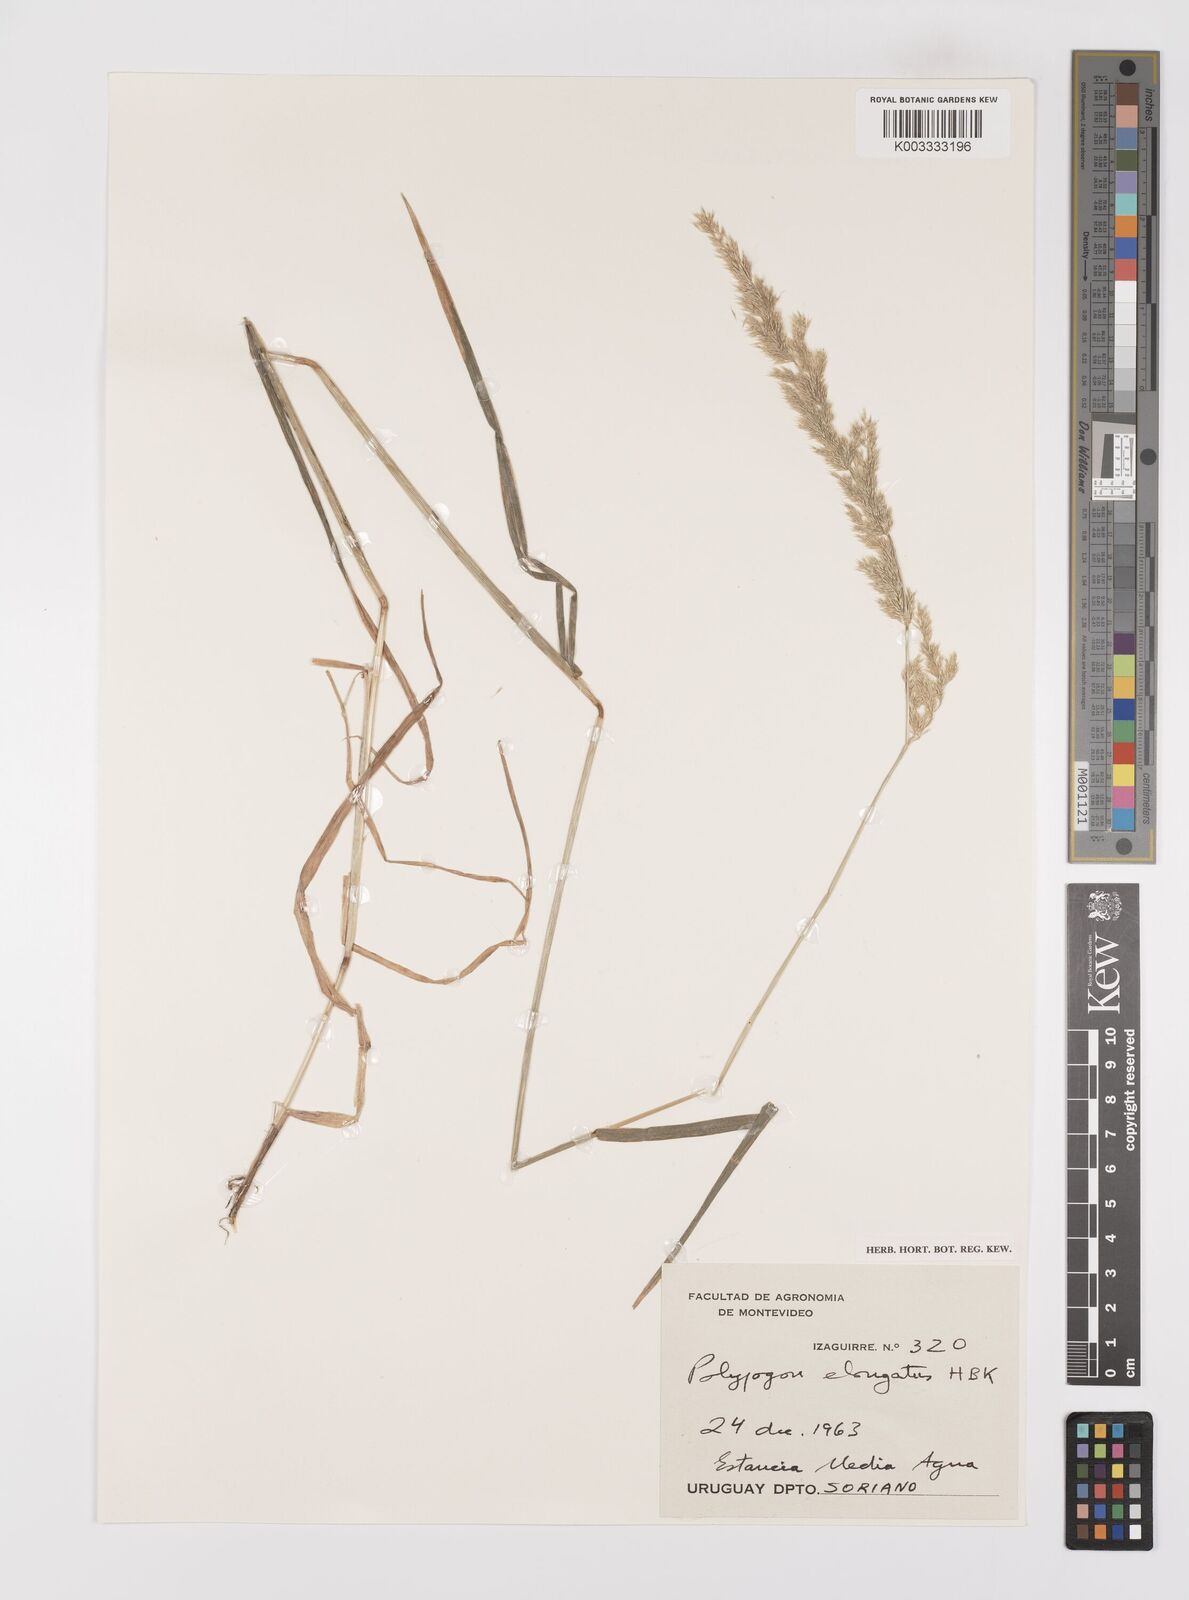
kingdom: Plantae
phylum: Tracheophyta
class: Liliopsida
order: Poales
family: Poaceae
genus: Polypogon
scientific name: Polypogon elongatus
